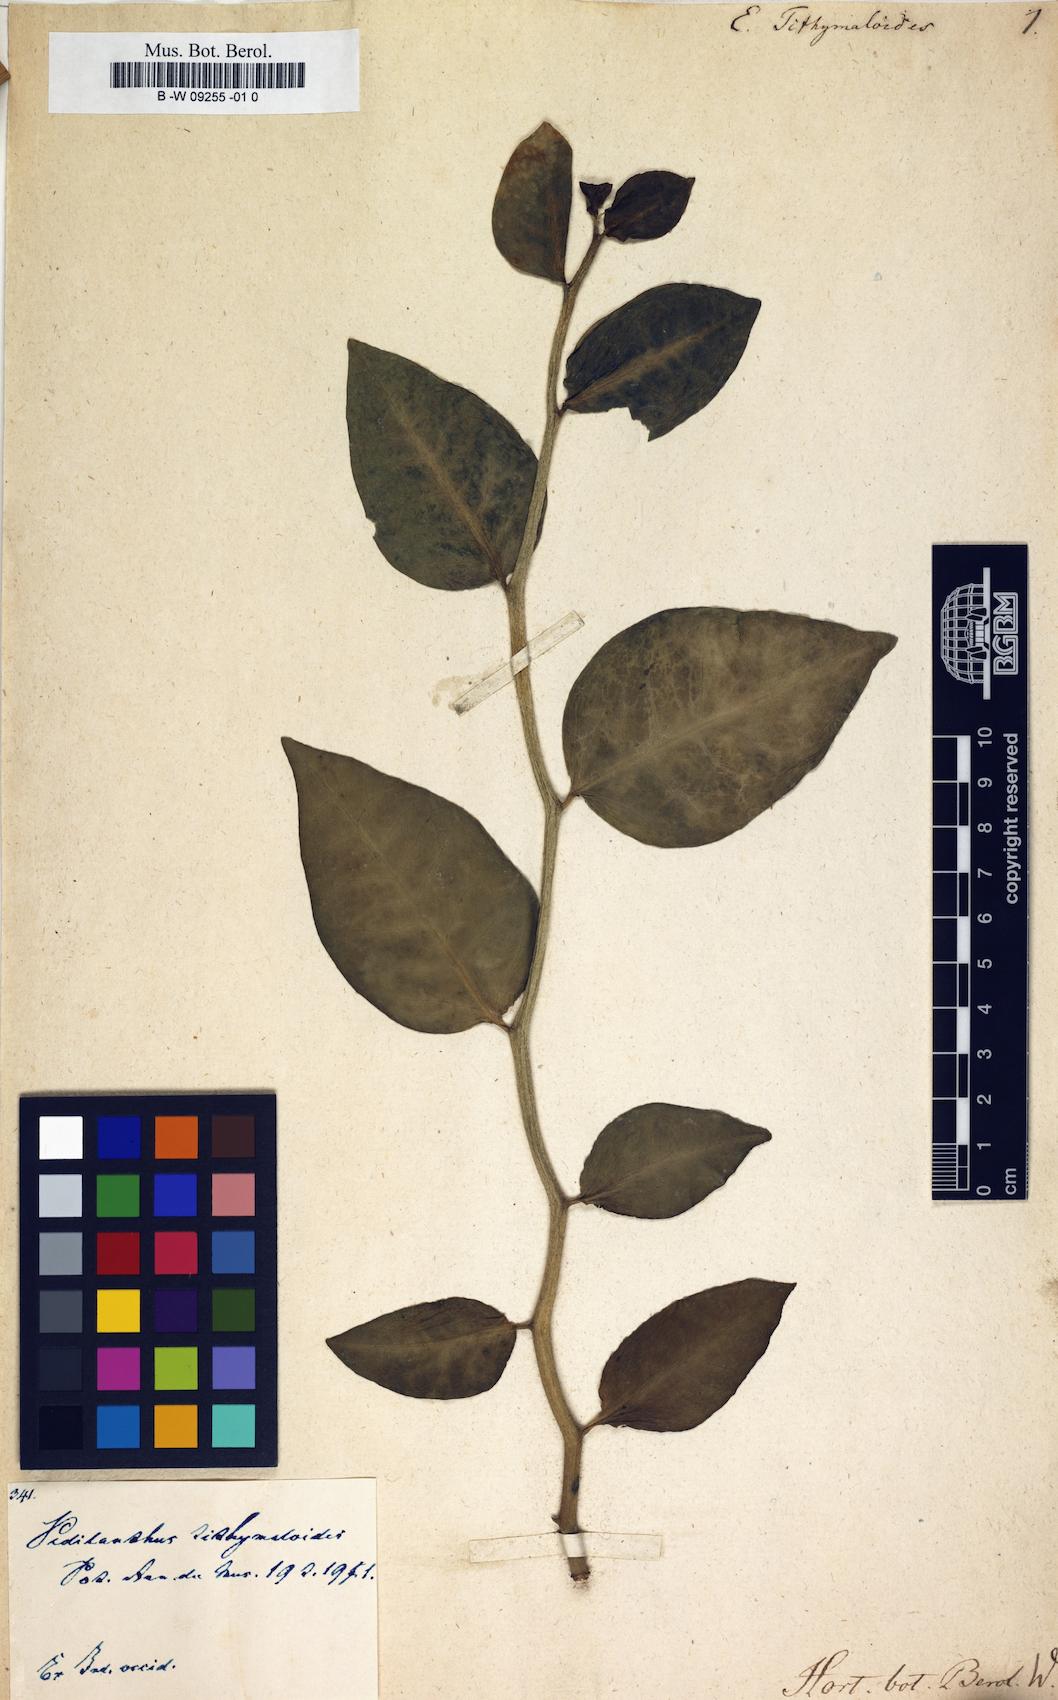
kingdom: Plantae
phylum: Tracheophyta
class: Magnoliopsida
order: Malpighiales
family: Euphorbiaceae
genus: Euphorbia
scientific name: Euphorbia tithymaloides
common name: Slipperplant
